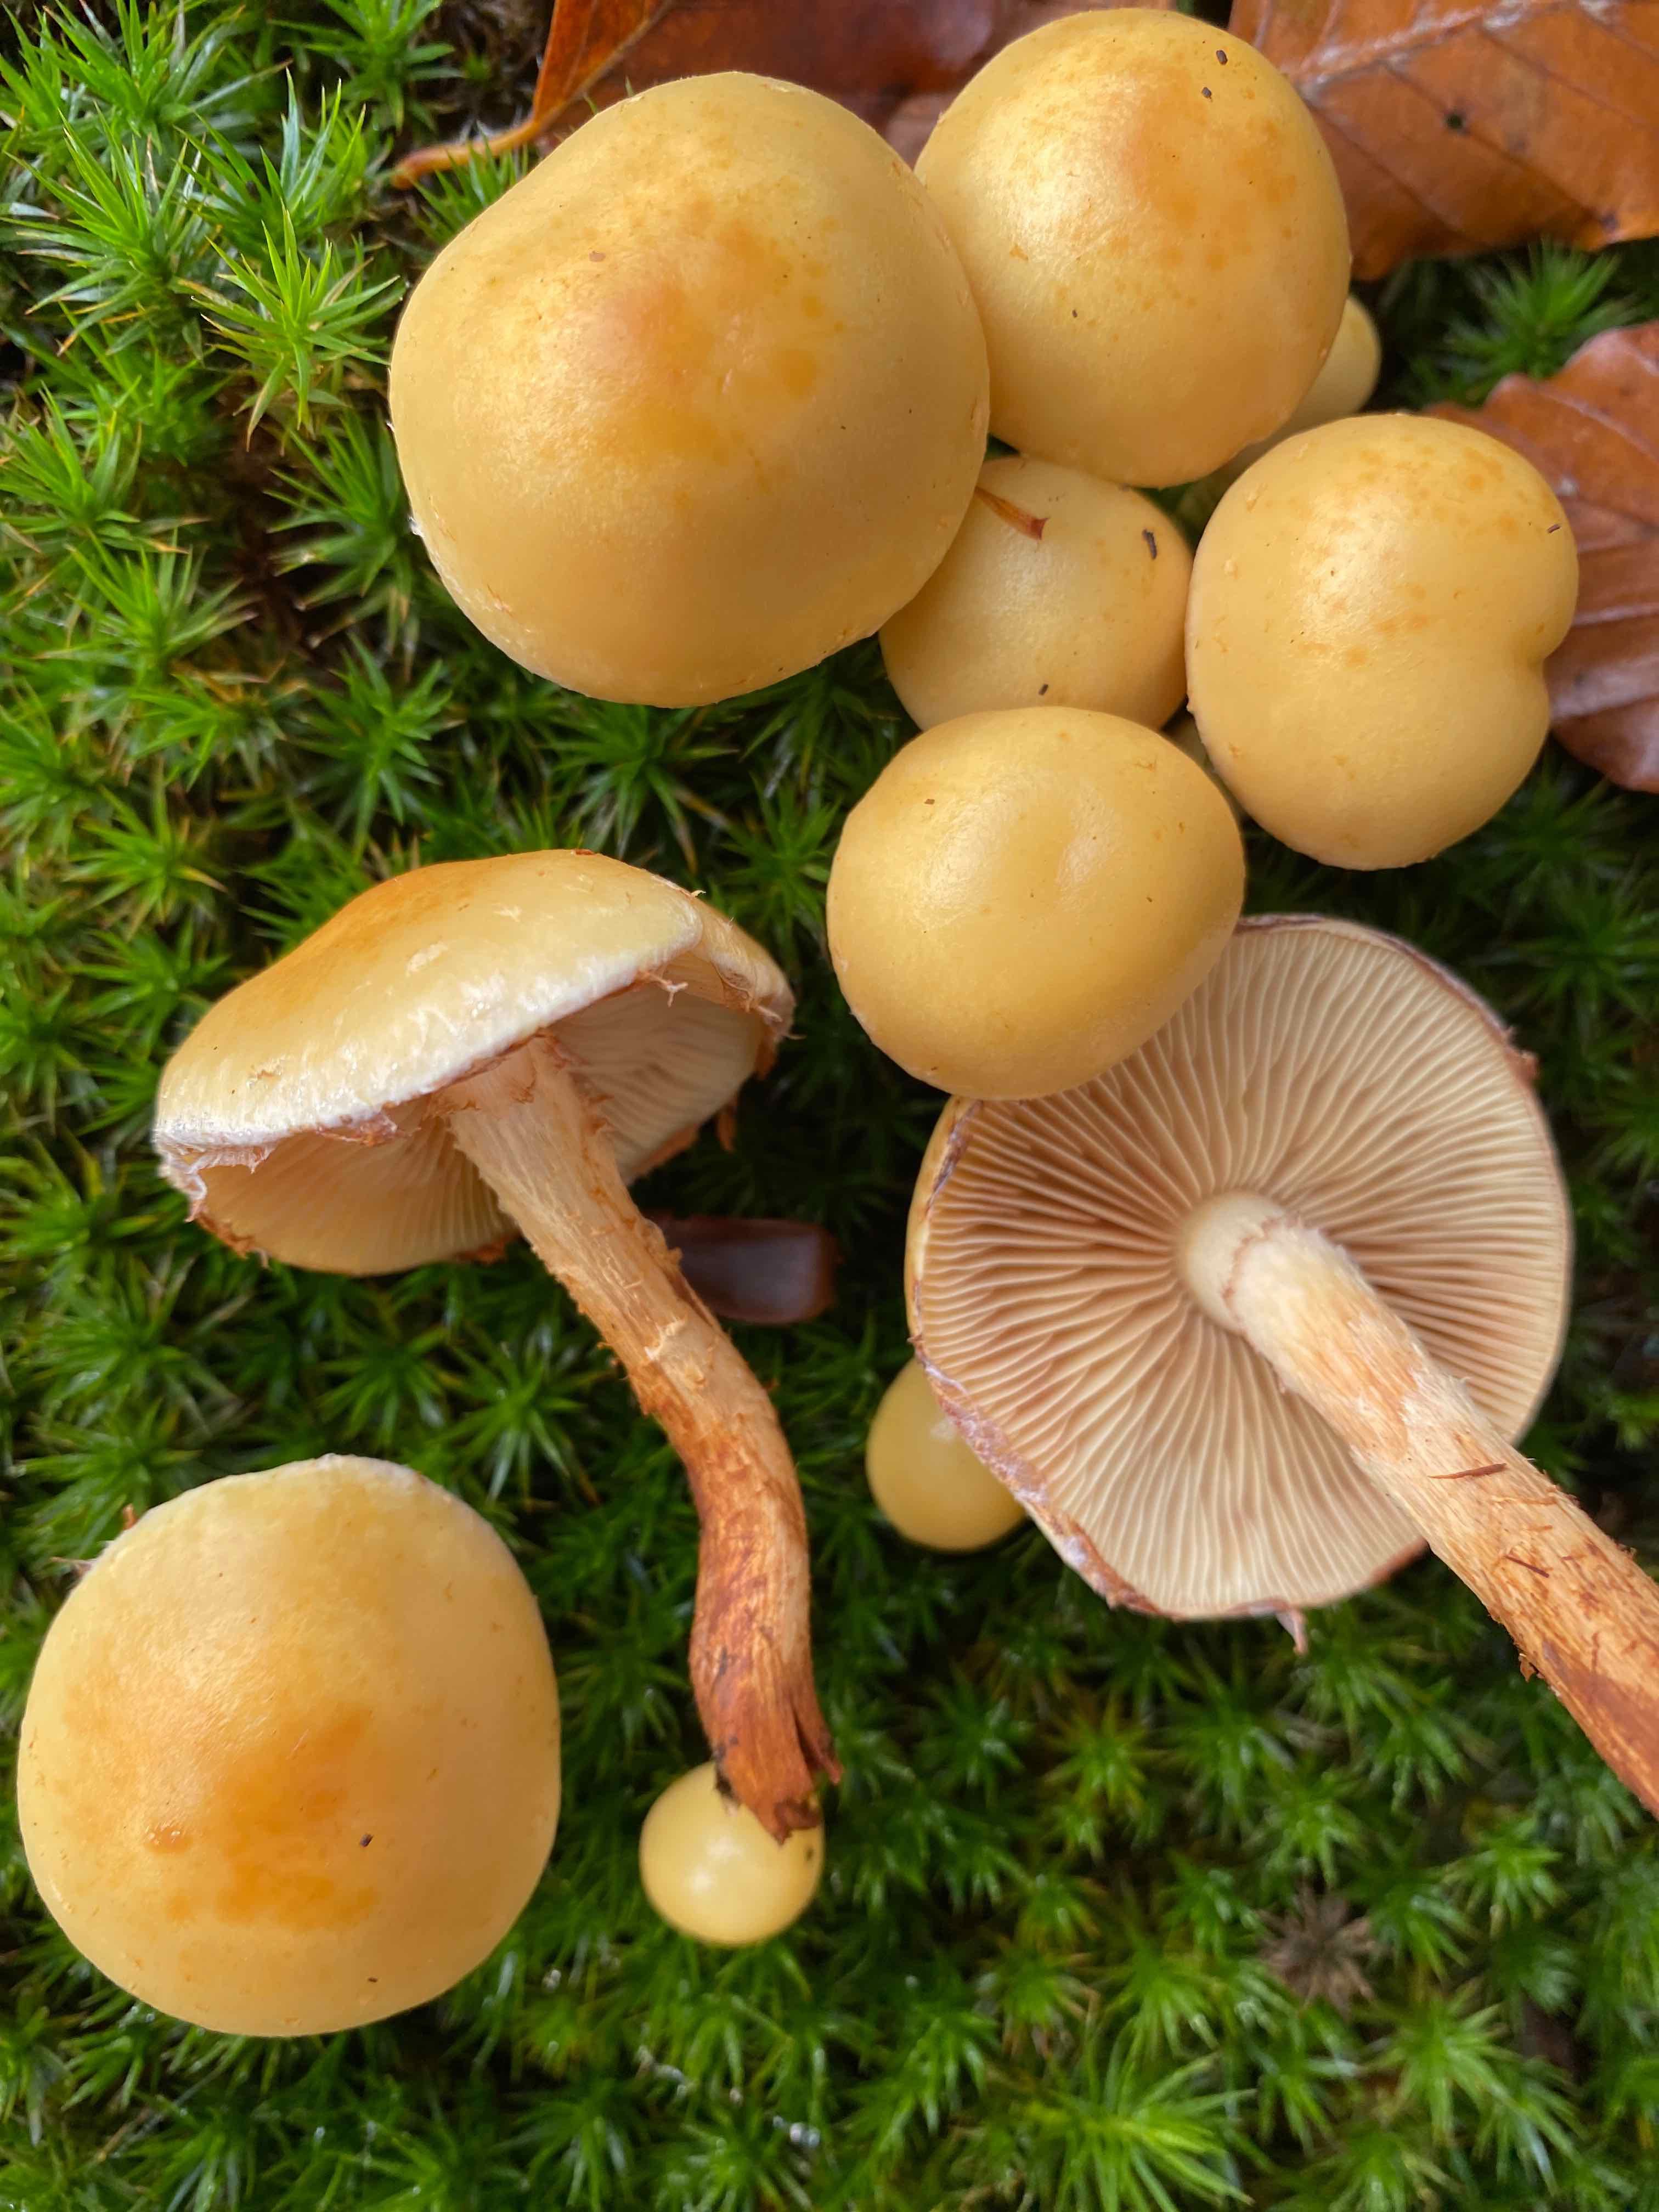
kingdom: Fungi
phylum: Basidiomycota
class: Agaricomycetes
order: Agaricales
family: Strophariaceae
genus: Kuehneromyces
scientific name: Kuehneromyces mutabilis
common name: foranderlig skælhat
